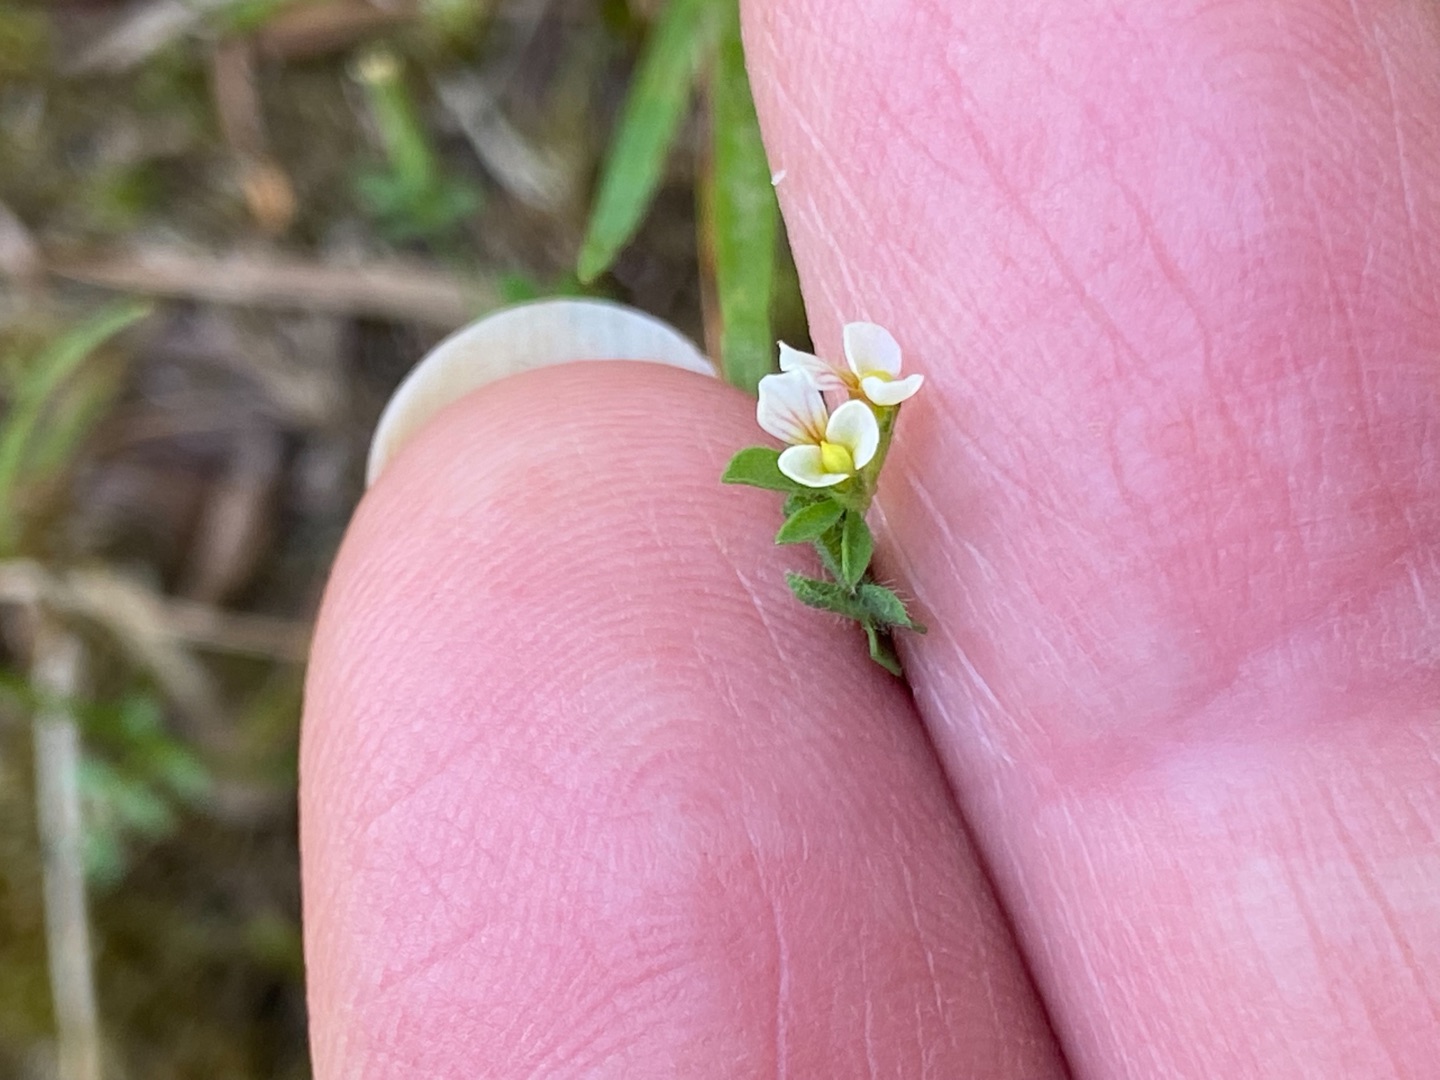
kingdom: Plantae
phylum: Tracheophyta
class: Magnoliopsida
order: Fabales
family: Fabaceae
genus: Ornithopus
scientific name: Ornithopus perpusillus
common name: Liden fugleklo
